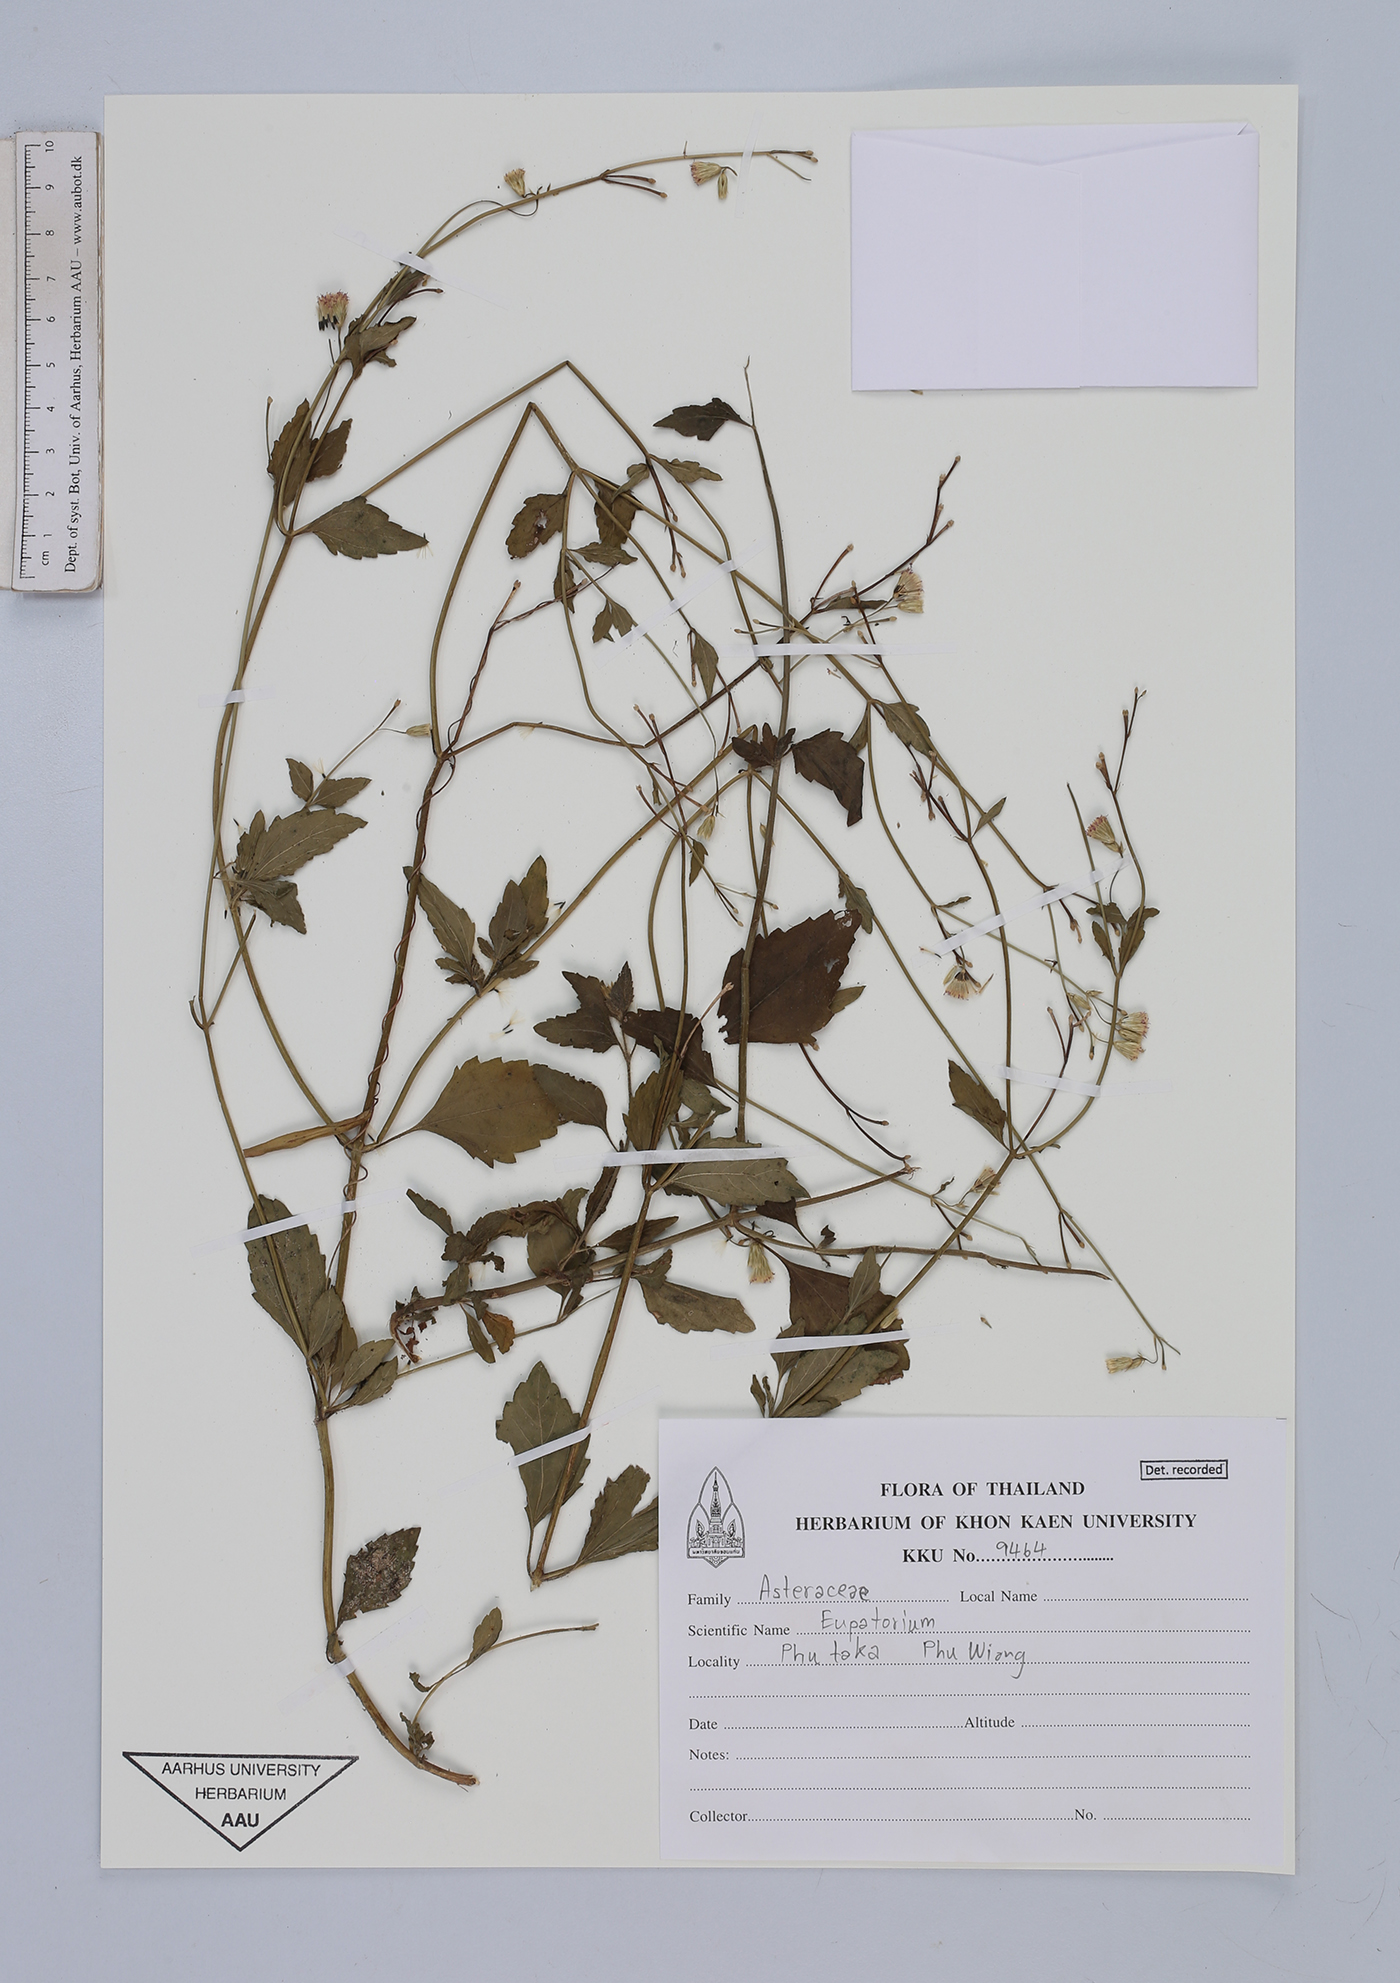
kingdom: Plantae
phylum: Tracheophyta
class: Magnoliopsida
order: Asterales
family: Asteraceae
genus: Eupatorium
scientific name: Eupatorium
